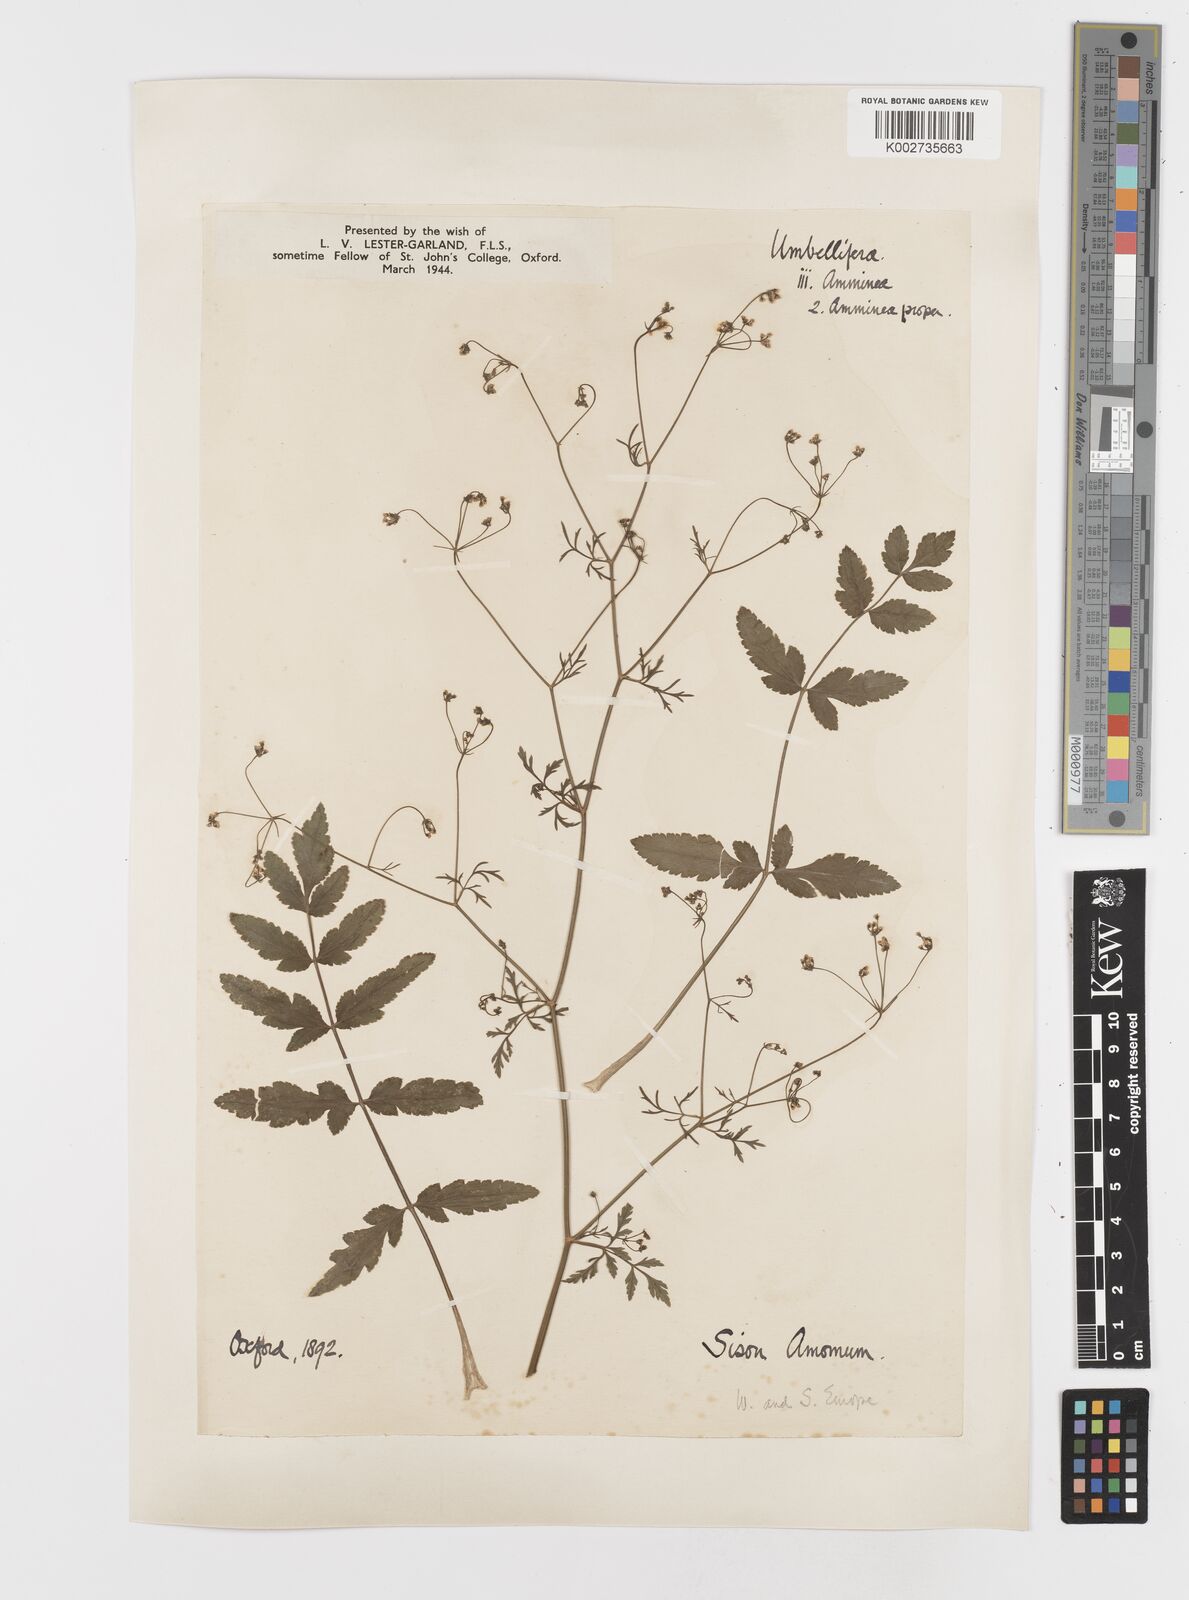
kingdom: Plantae
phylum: Tracheophyta
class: Magnoliopsida
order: Apiales
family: Apiaceae
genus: Sison
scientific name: Sison amomum
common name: Stone-parsley
